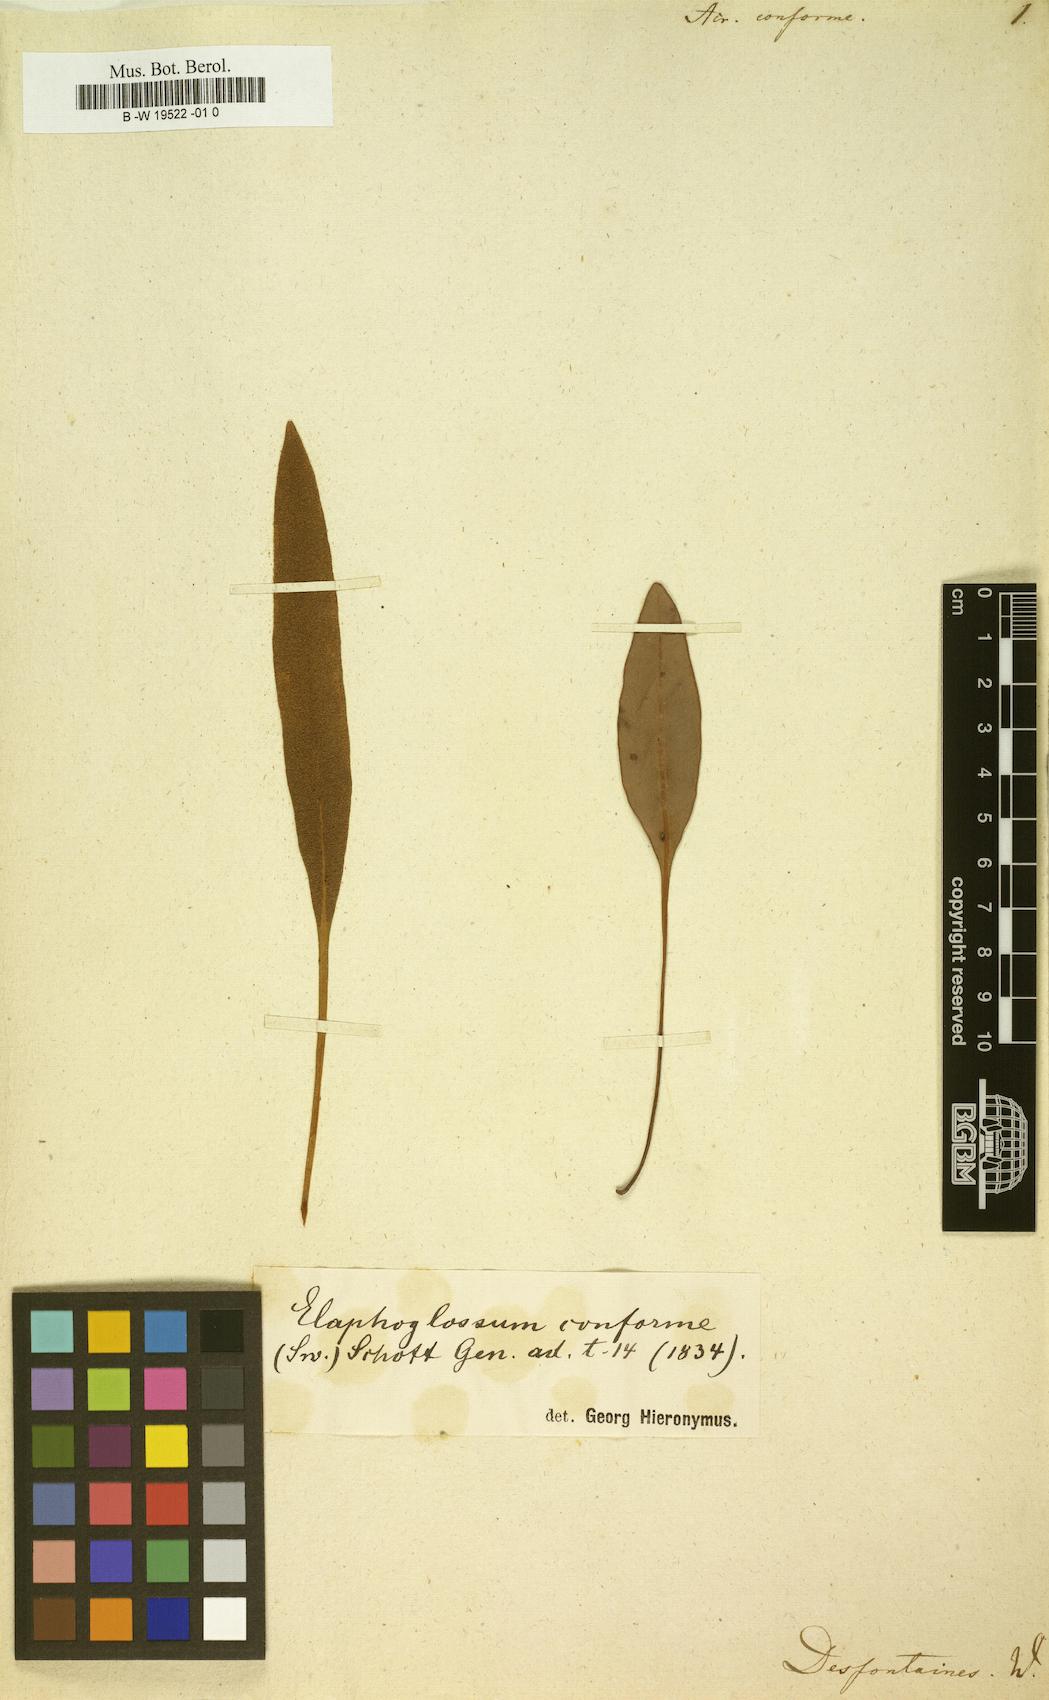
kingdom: Plantae
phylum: Tracheophyta
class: Polypodiopsida
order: Polypodiales
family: Dryopteridaceae
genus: Elaphoglossum
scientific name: Elaphoglossum conforme
